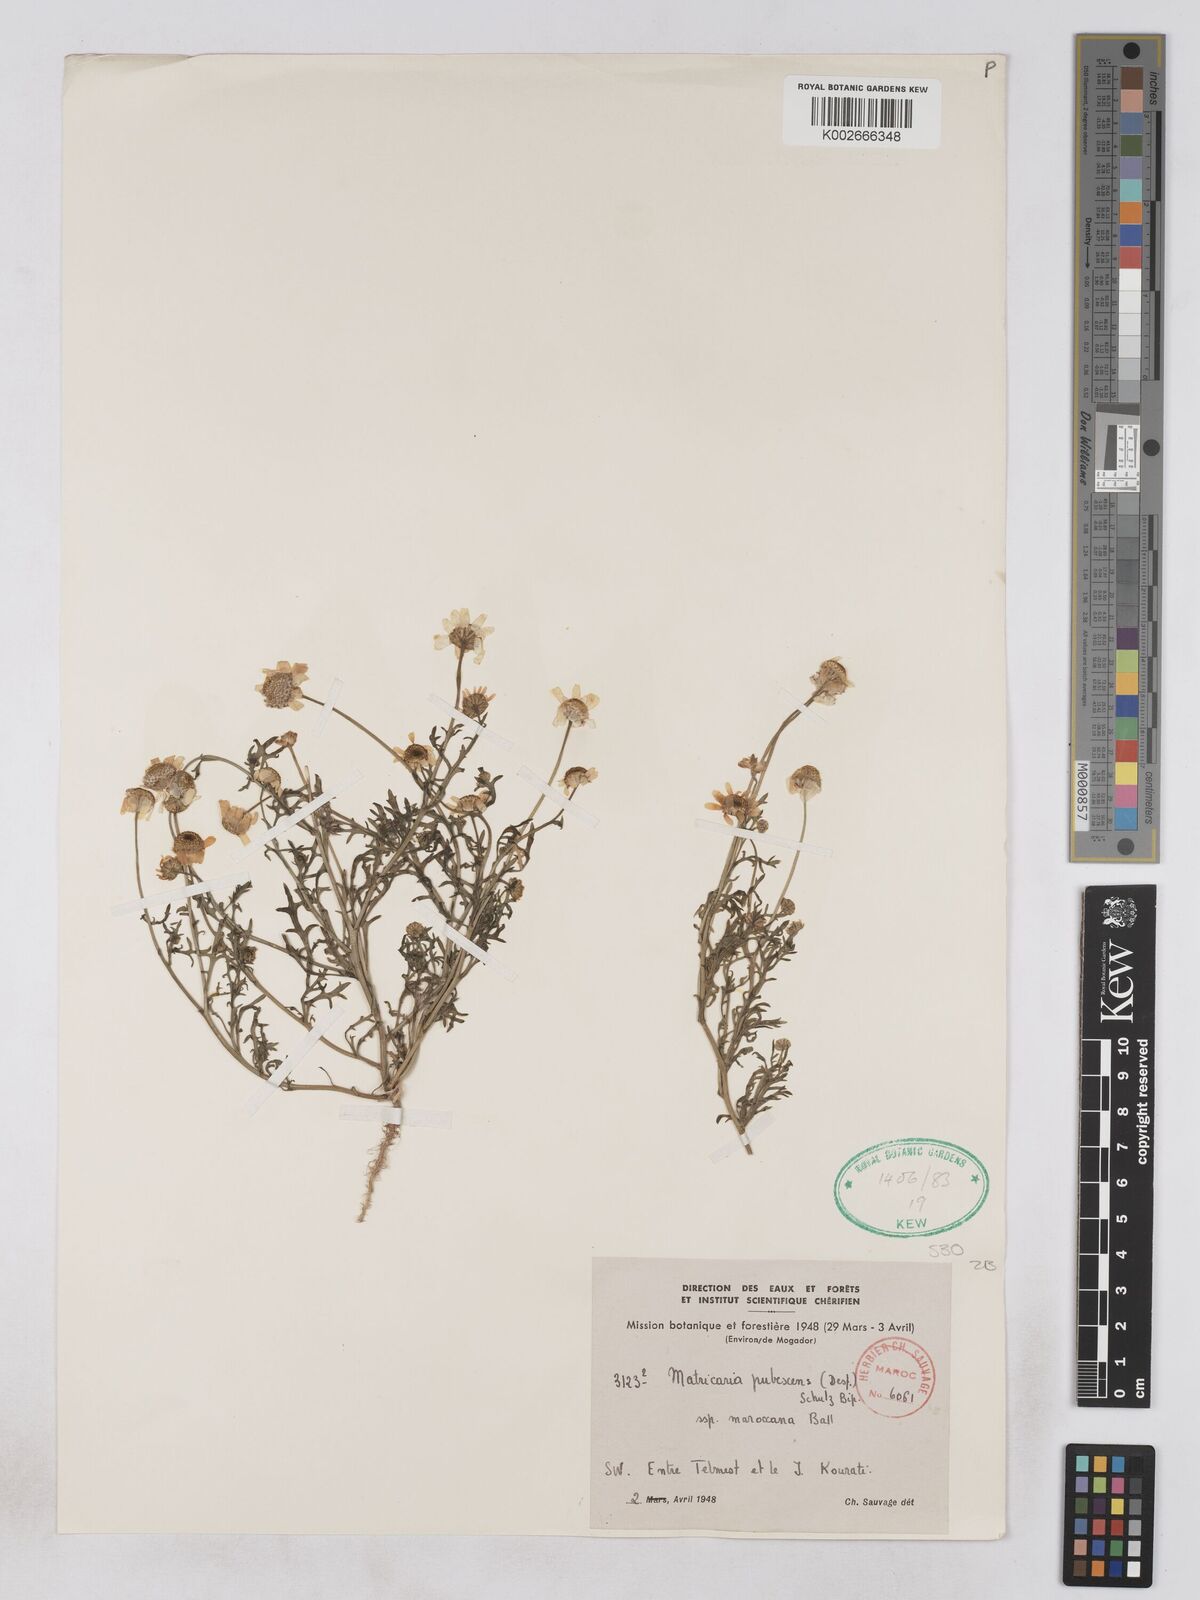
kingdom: Plantae
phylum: Tracheophyta
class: Magnoliopsida
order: Asterales
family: Asteraceae
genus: Otoglyphis
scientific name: Otoglyphis pubescens
